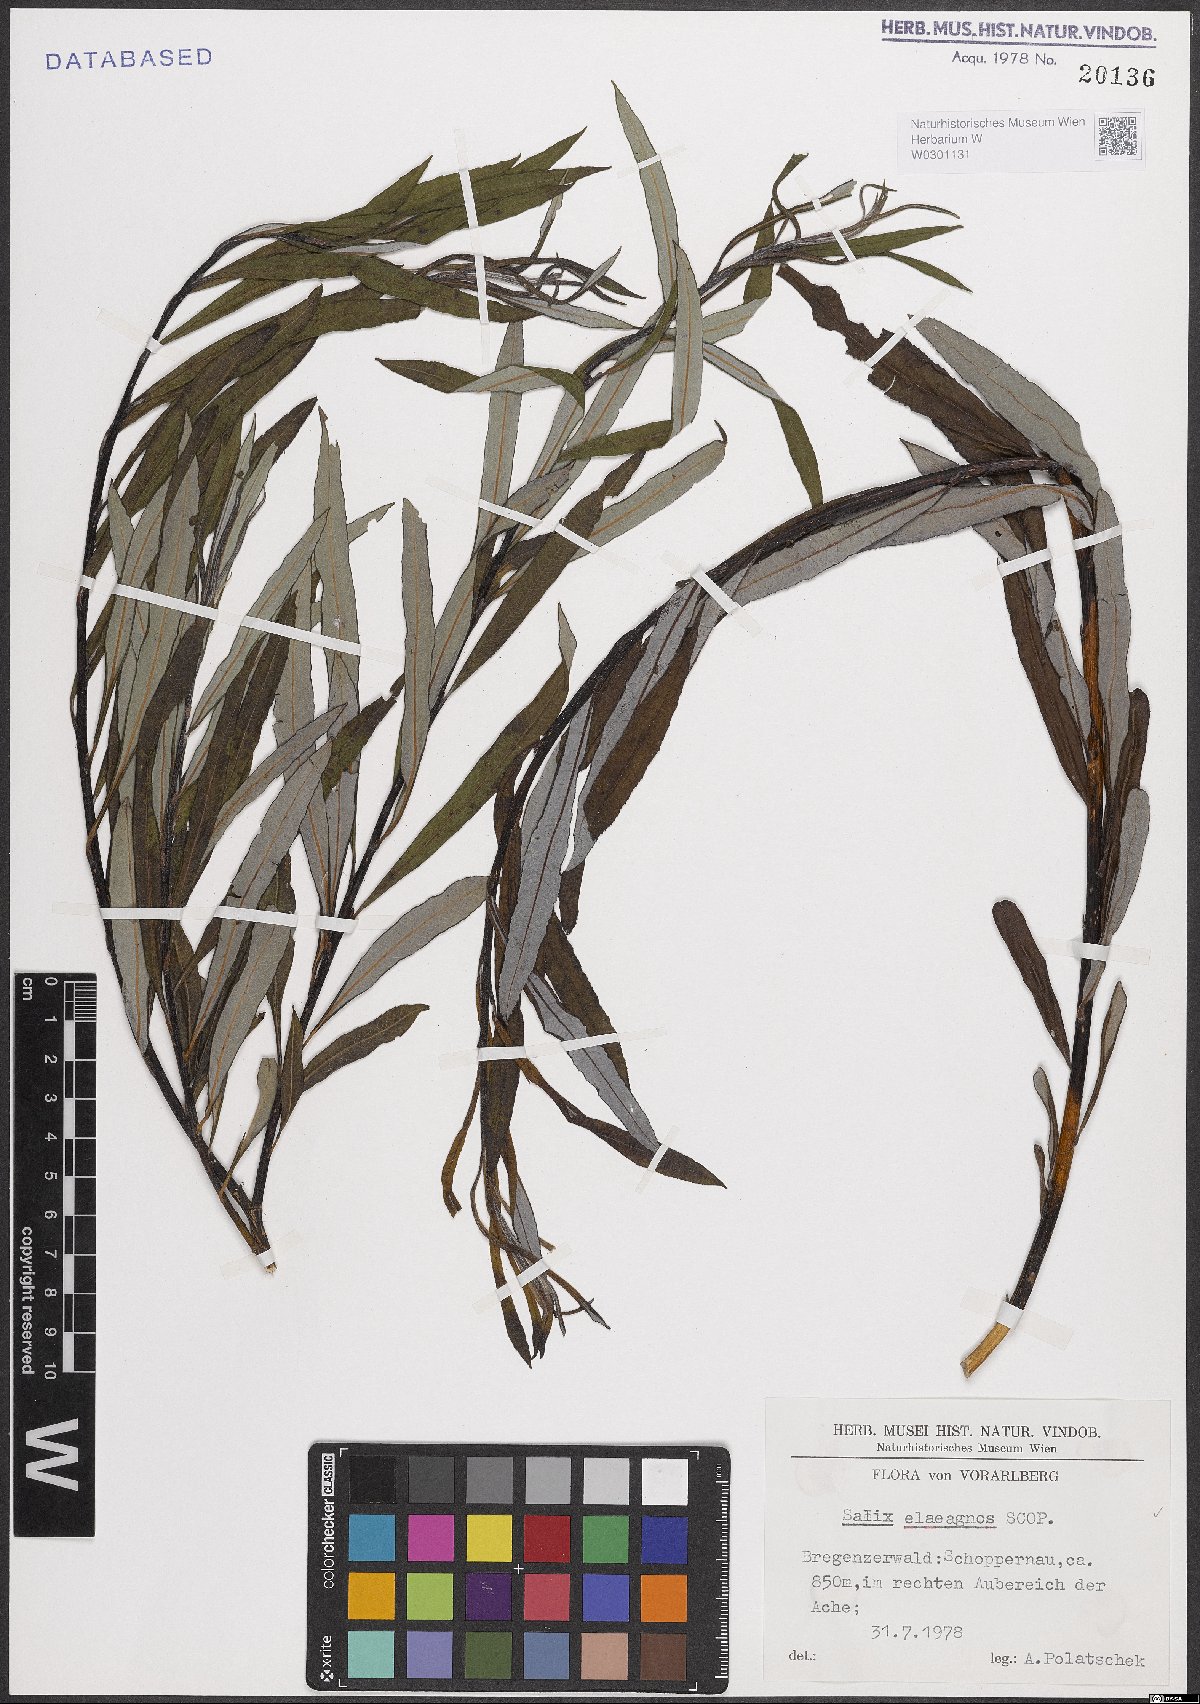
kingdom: Plantae
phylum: Tracheophyta
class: Magnoliopsida
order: Malpighiales
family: Salicaceae
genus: Salix
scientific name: Salix eleagnos
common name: Elaeagnus willow
